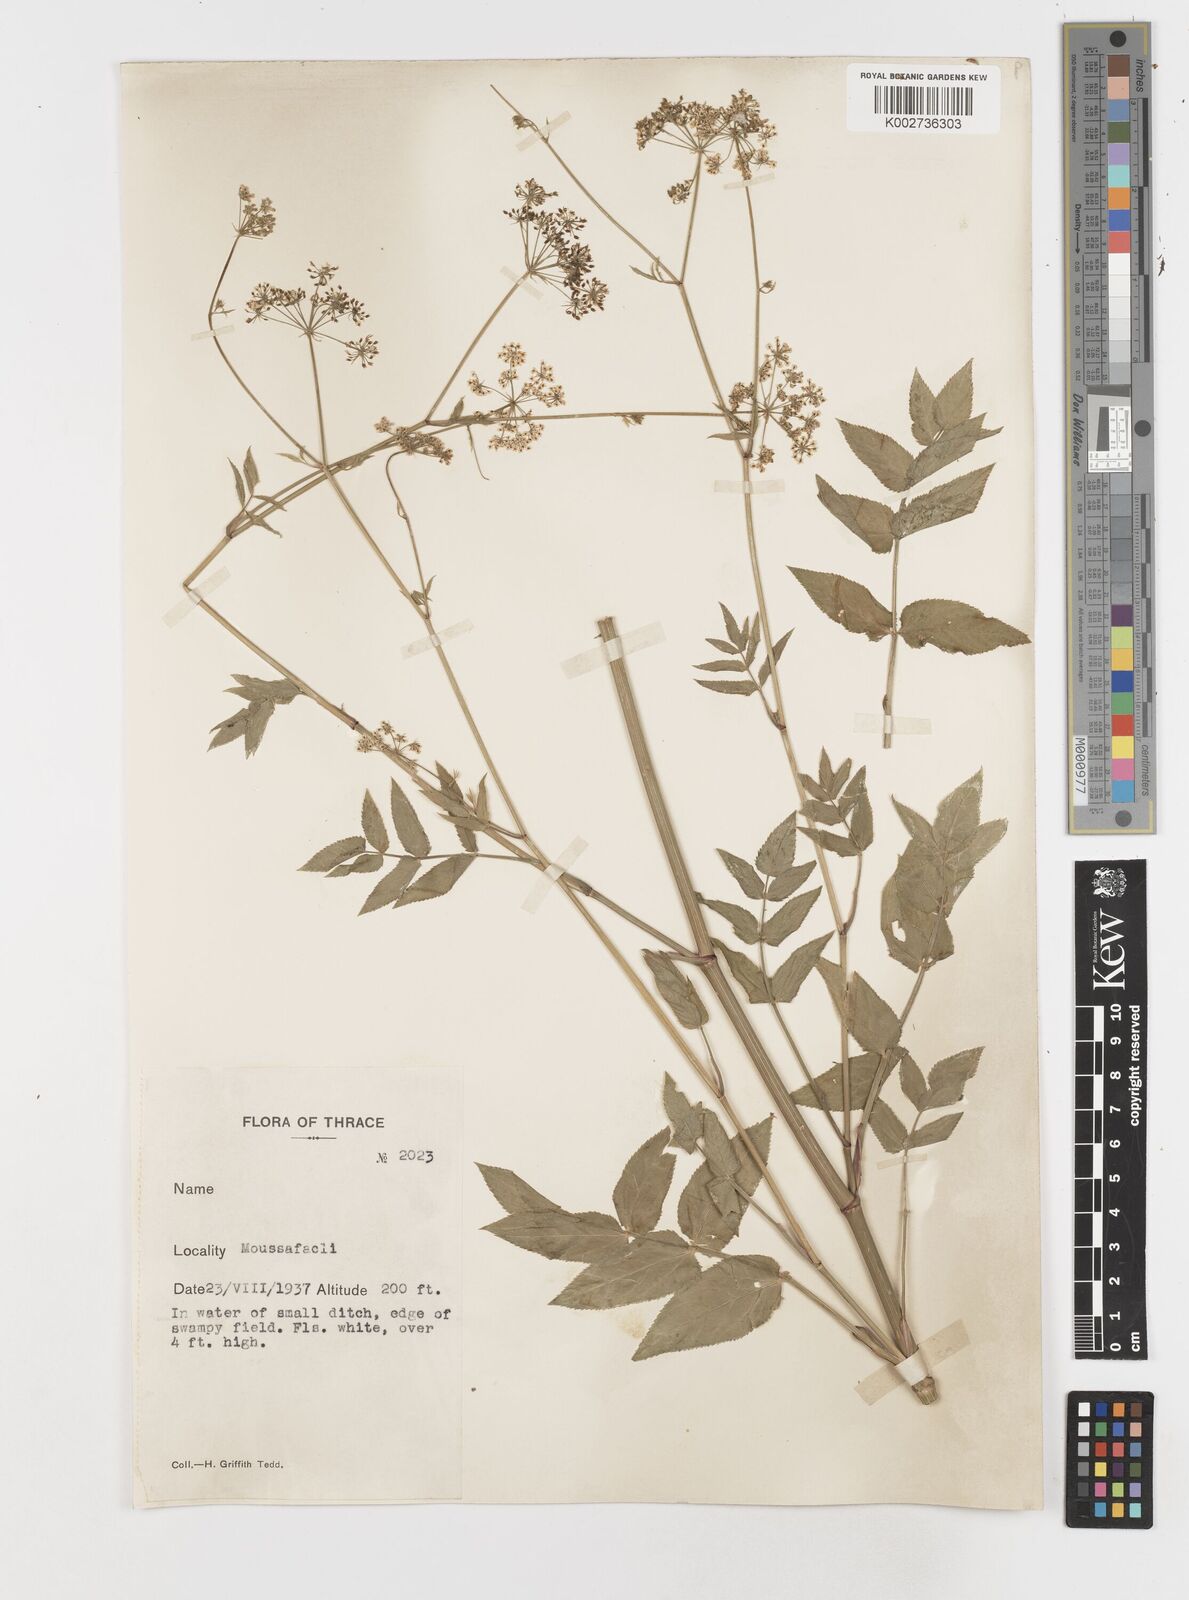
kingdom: Plantae
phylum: Tracheophyta
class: Magnoliopsida
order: Apiales
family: Apiaceae
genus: Sium
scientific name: Sium sisarum
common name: Skirret
